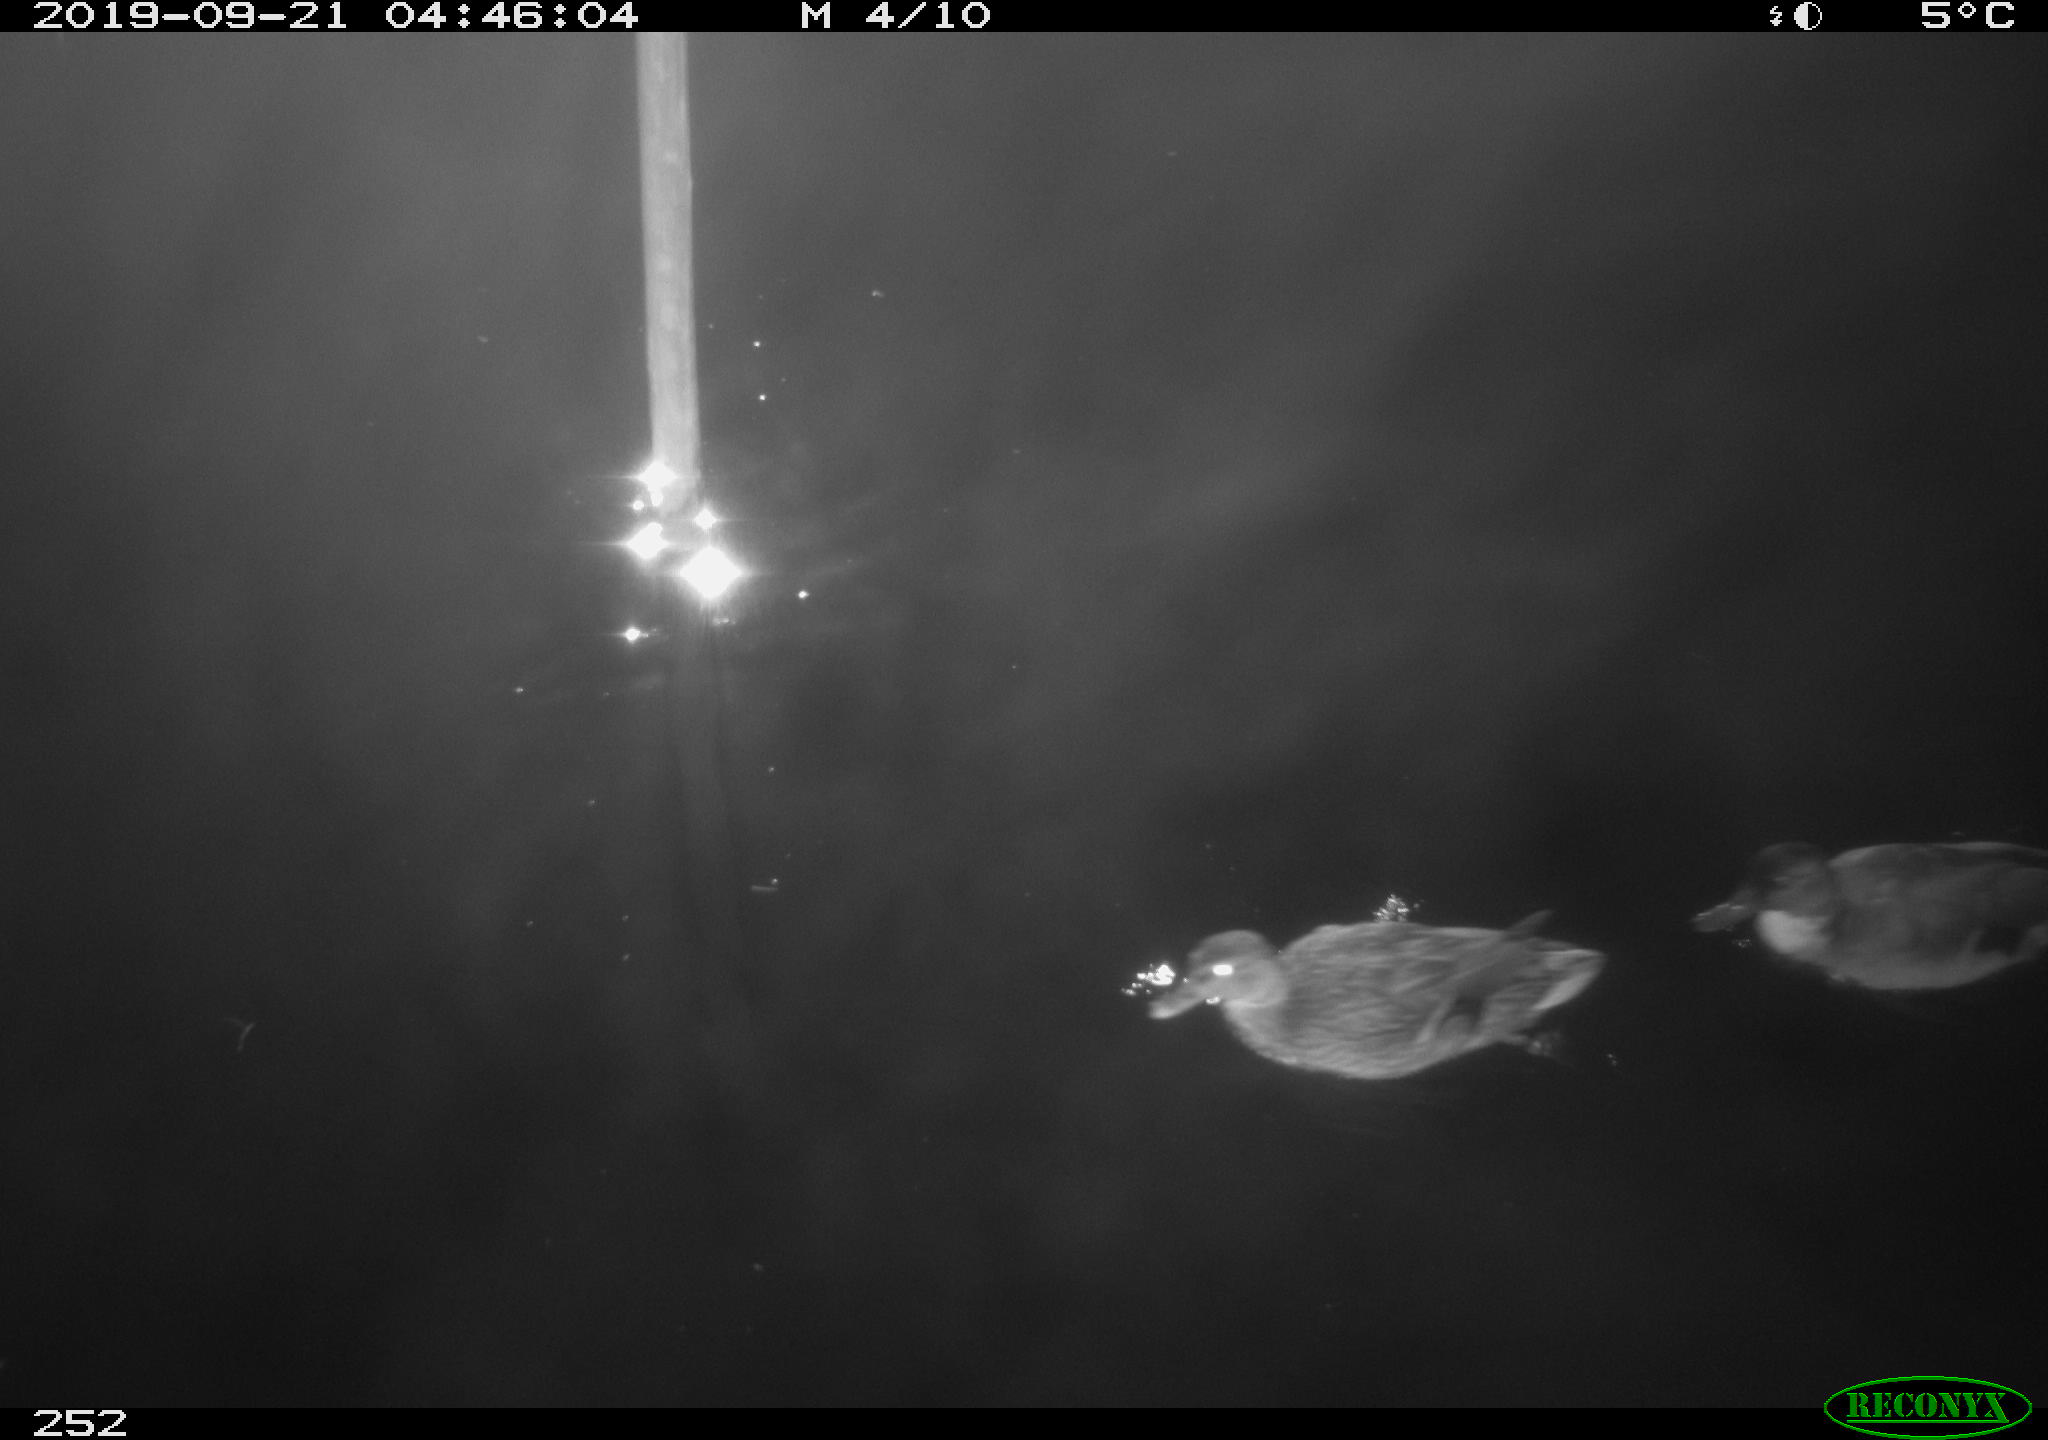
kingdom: Animalia
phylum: Chordata
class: Aves
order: Anseriformes
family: Anatidae
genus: Anas
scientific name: Anas platyrhynchos
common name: Mallard
